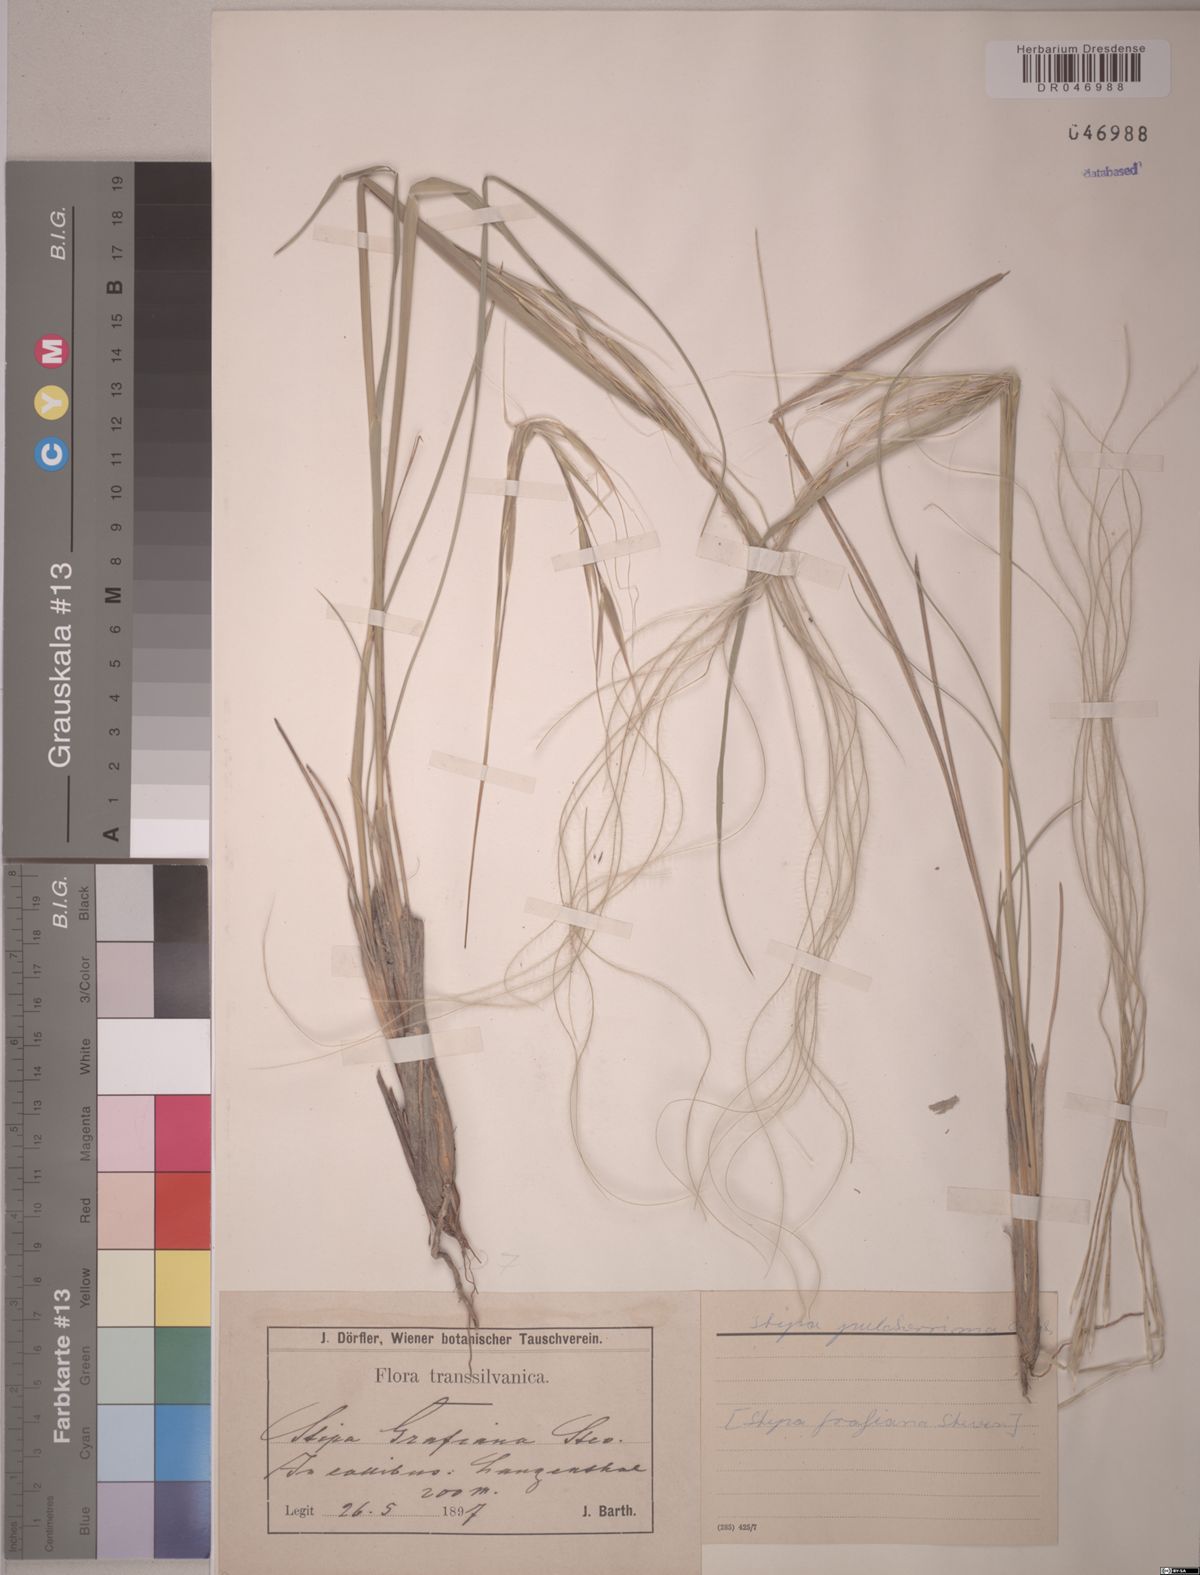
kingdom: Plantae
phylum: Tracheophyta
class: Liliopsida
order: Poales
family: Poaceae
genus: Stipa
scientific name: Stipa pulcherrima
